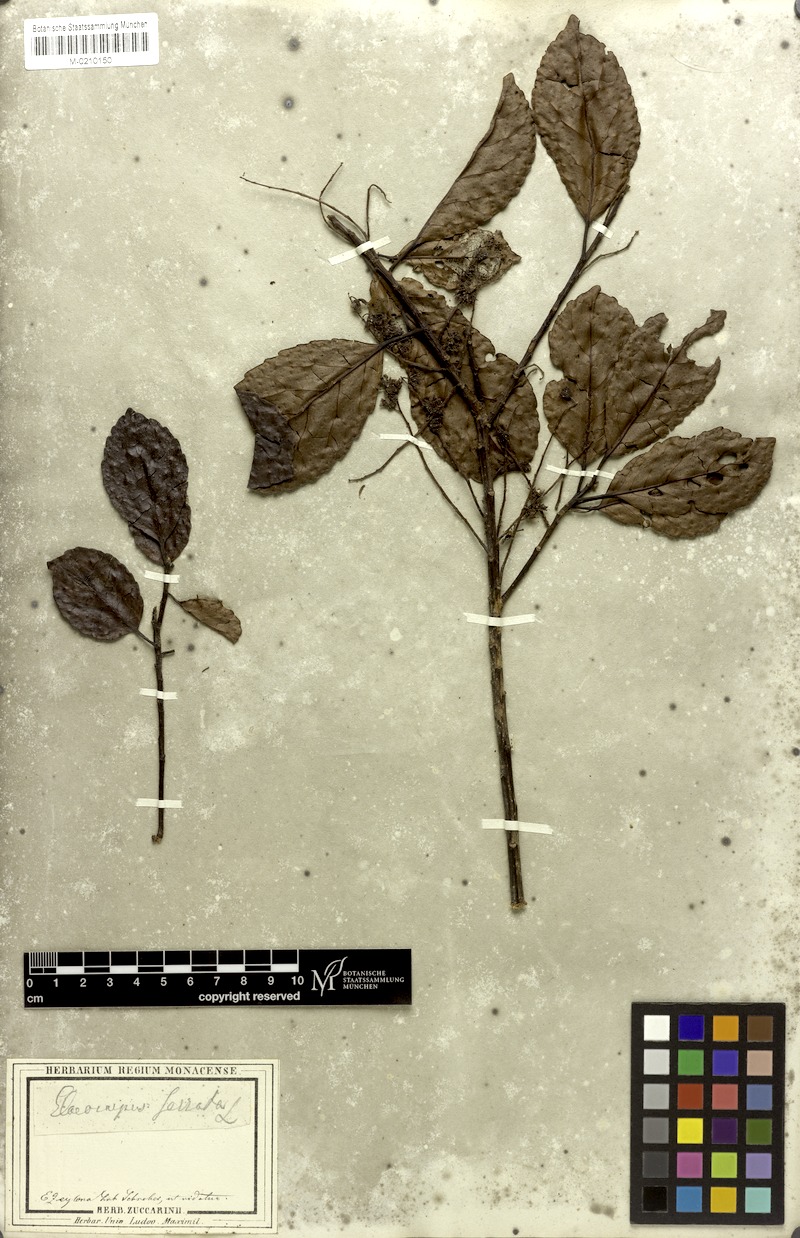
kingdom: Plantae
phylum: Tracheophyta
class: Magnoliopsida
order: Oxalidales
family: Elaeocarpaceae
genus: Elaeocarpus
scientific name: Elaeocarpus dentatus
